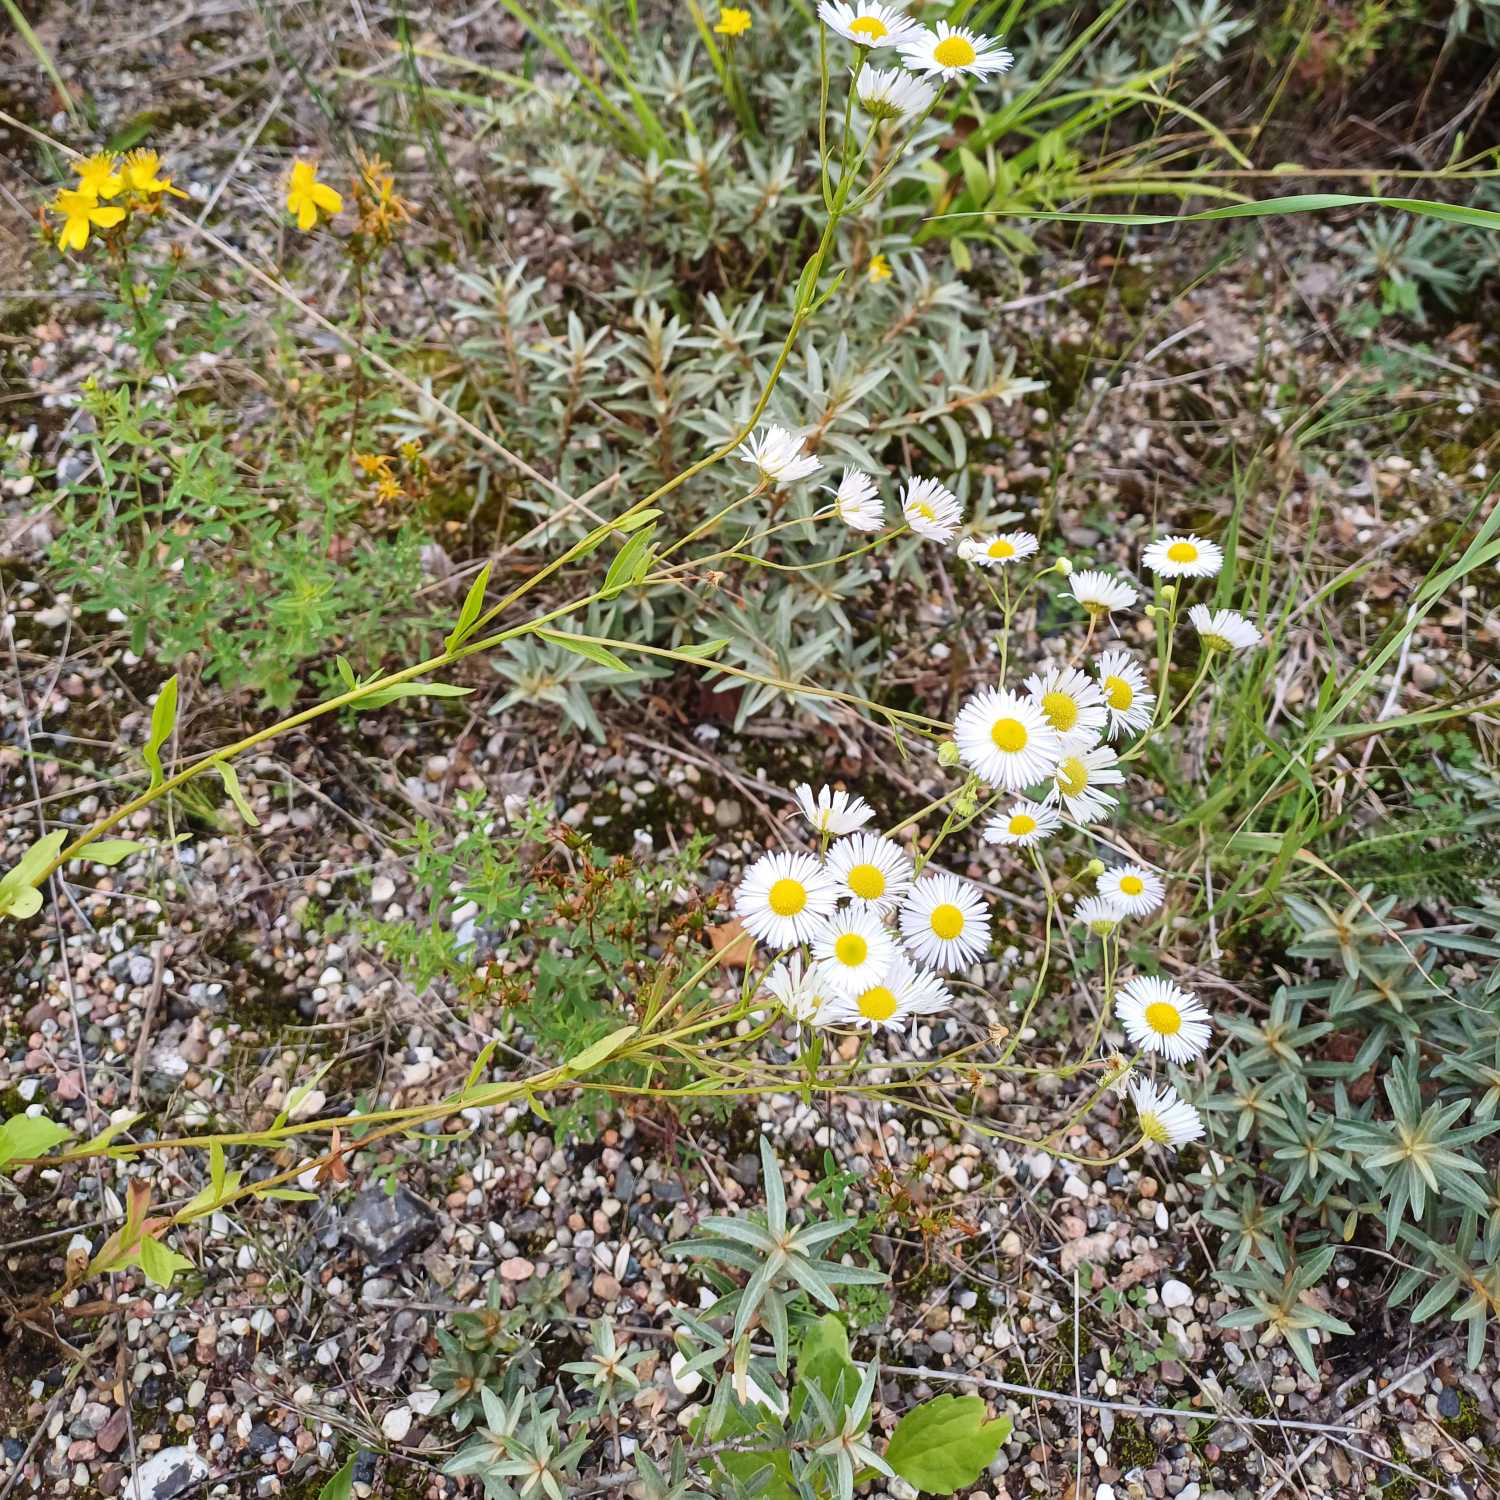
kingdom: Plantae
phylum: Tracheophyta
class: Magnoliopsida
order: Asterales
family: Asteraceae
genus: Erigeron
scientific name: Erigeron annuus
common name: Smalstråle
